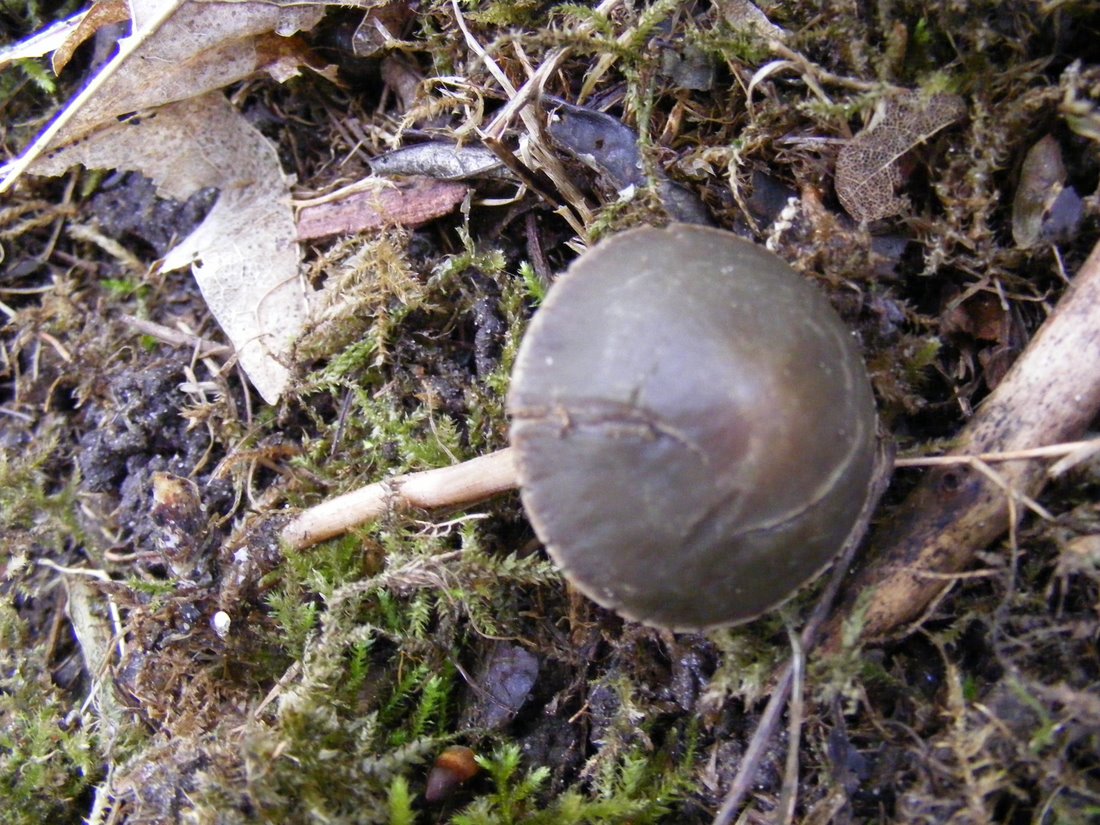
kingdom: Fungi
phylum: Basidiomycota
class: Agaricomycetes
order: Agaricales
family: Bolbitiaceae
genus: Panaeolus
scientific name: Panaeolus olivaceus
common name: lysstokket glanshat
